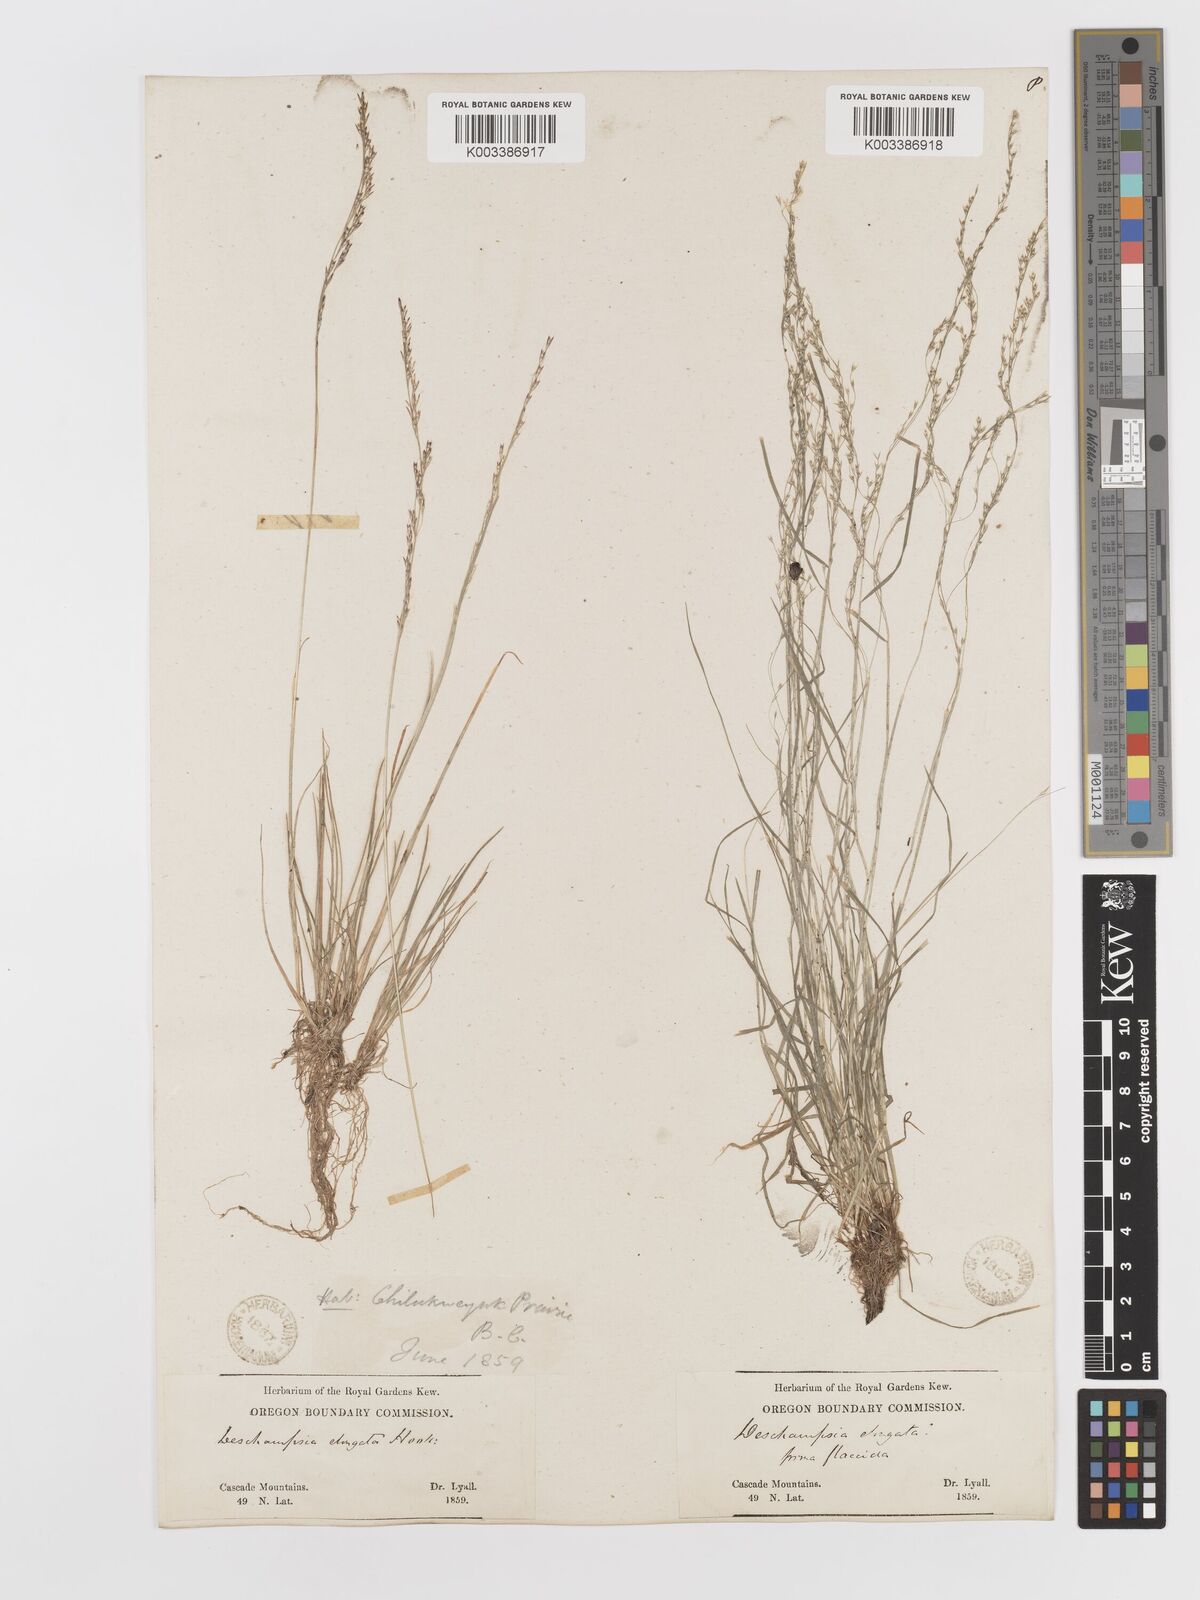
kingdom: Plantae
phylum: Tracheophyta
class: Liliopsida
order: Poales
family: Poaceae
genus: Deschampsia
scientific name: Deschampsia elongata
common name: Slender hairgrass
